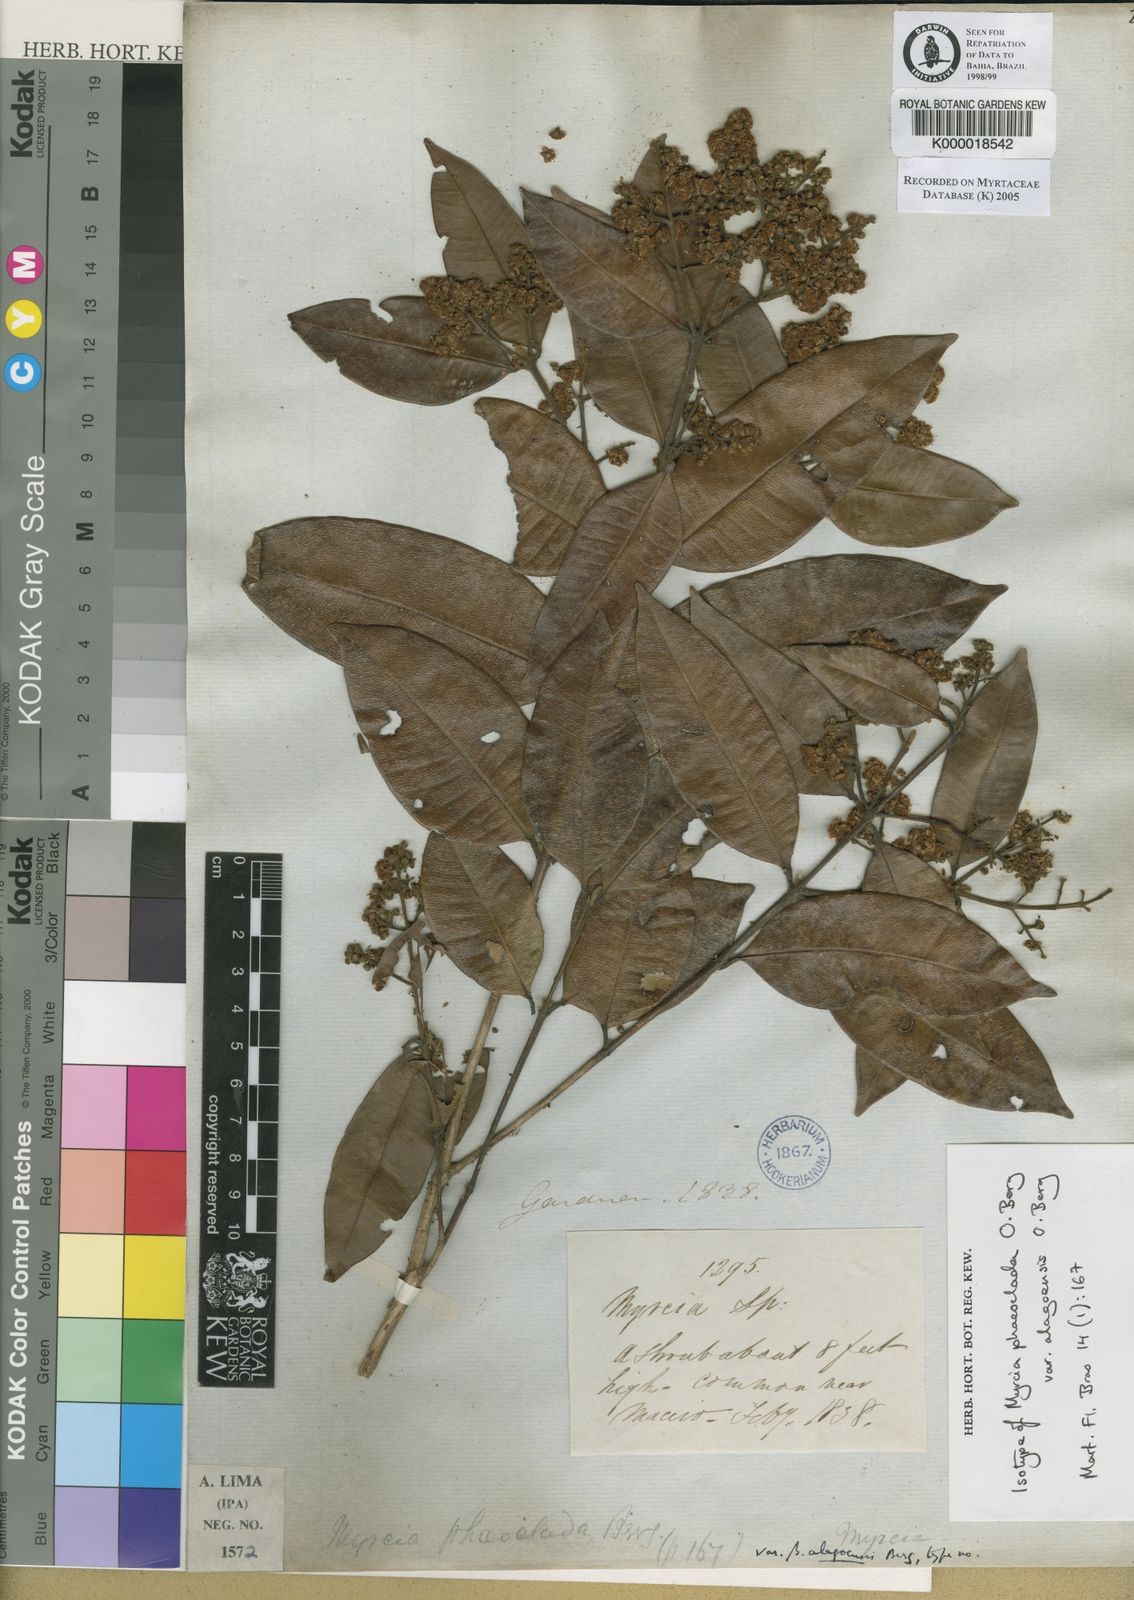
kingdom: Plantae
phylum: Tracheophyta
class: Magnoliopsida
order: Myrtales
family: Myrtaceae
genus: Myrcia
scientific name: Myrcia splendens
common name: Surinam cherry
